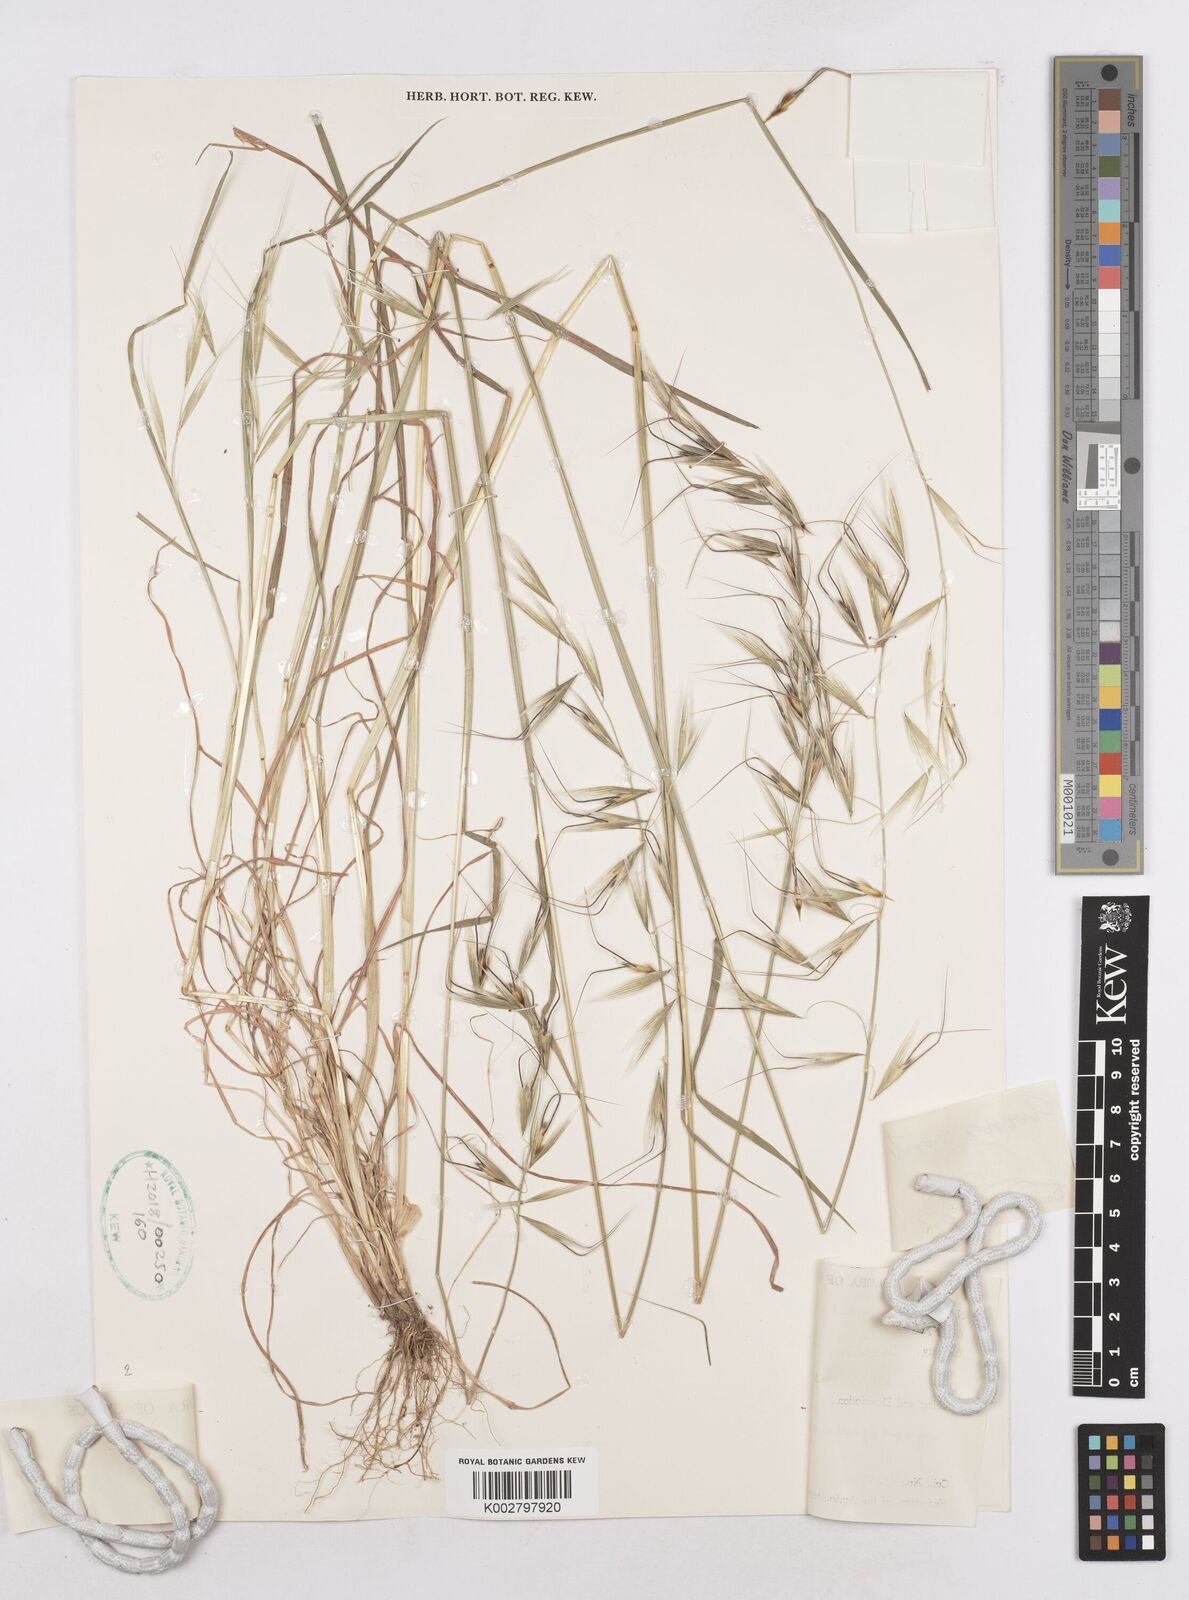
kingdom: Plantae
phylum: Tracheophyta
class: Liliopsida
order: Poales
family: Poaceae
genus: Avena
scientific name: Avena ventricosa
